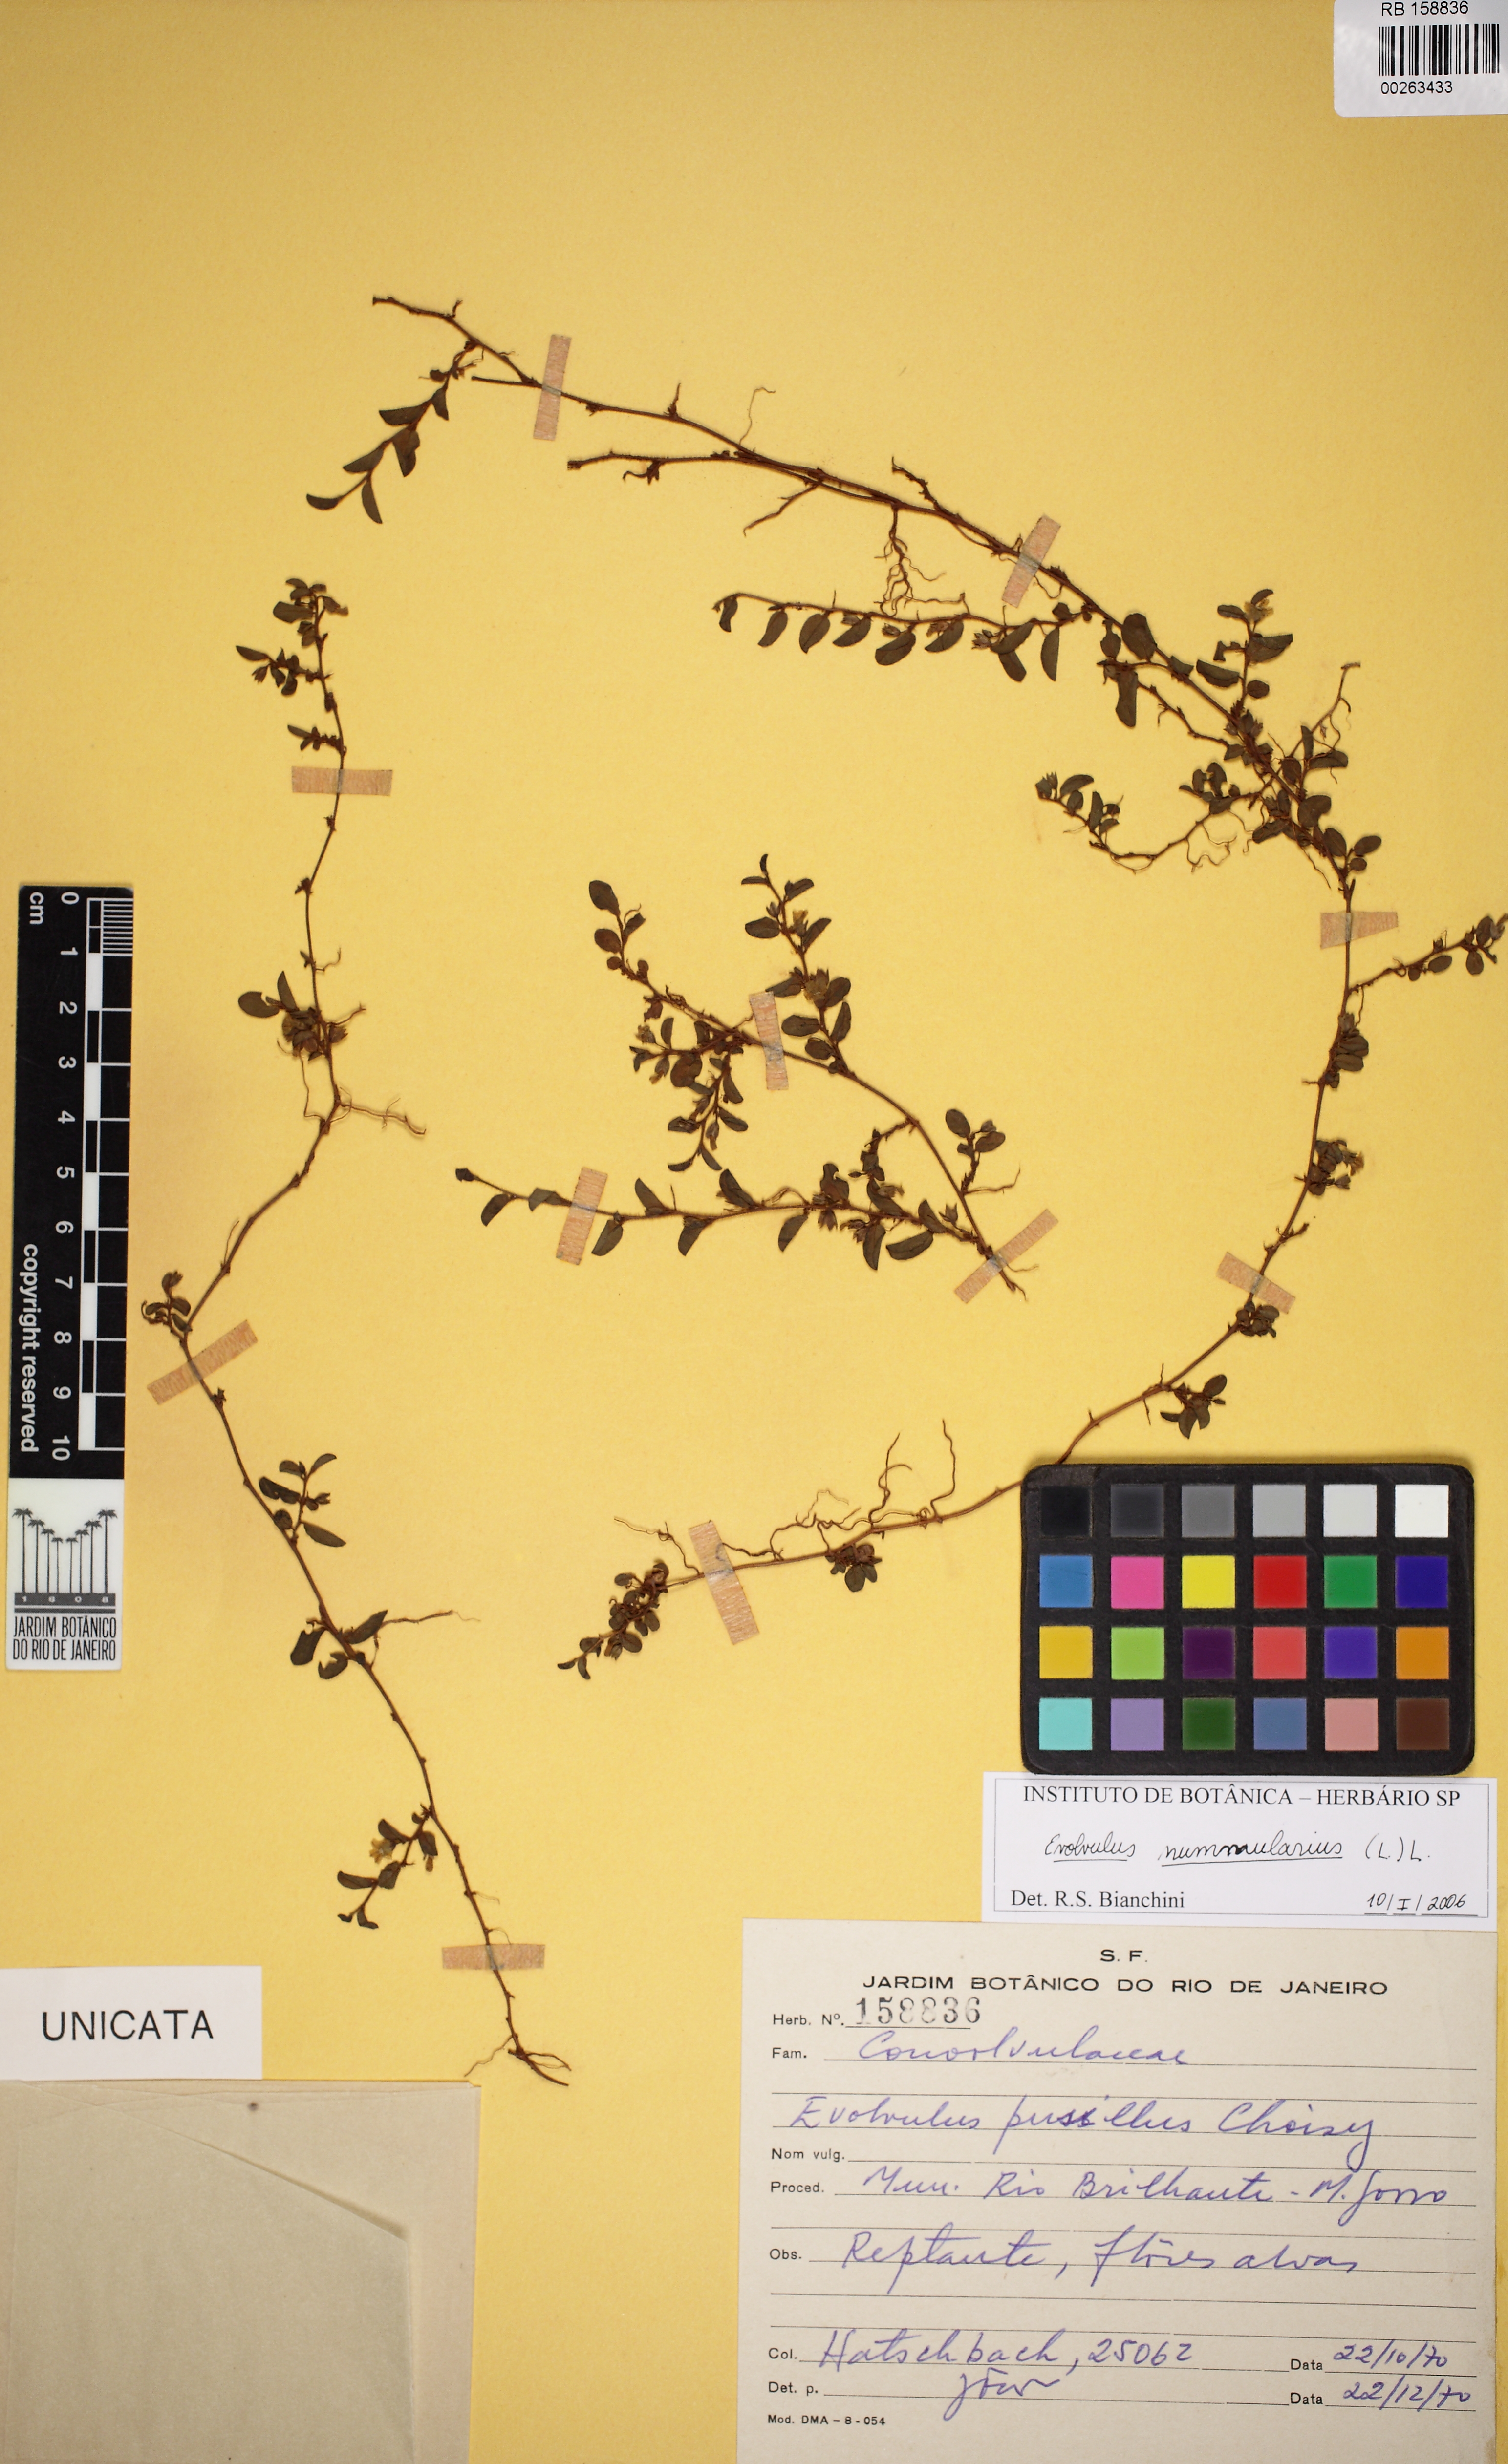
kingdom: Plantae
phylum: Tracheophyta
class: Magnoliopsida
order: Solanales
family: Convolvulaceae
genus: Evolvulus
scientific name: Evolvulus nummularius
